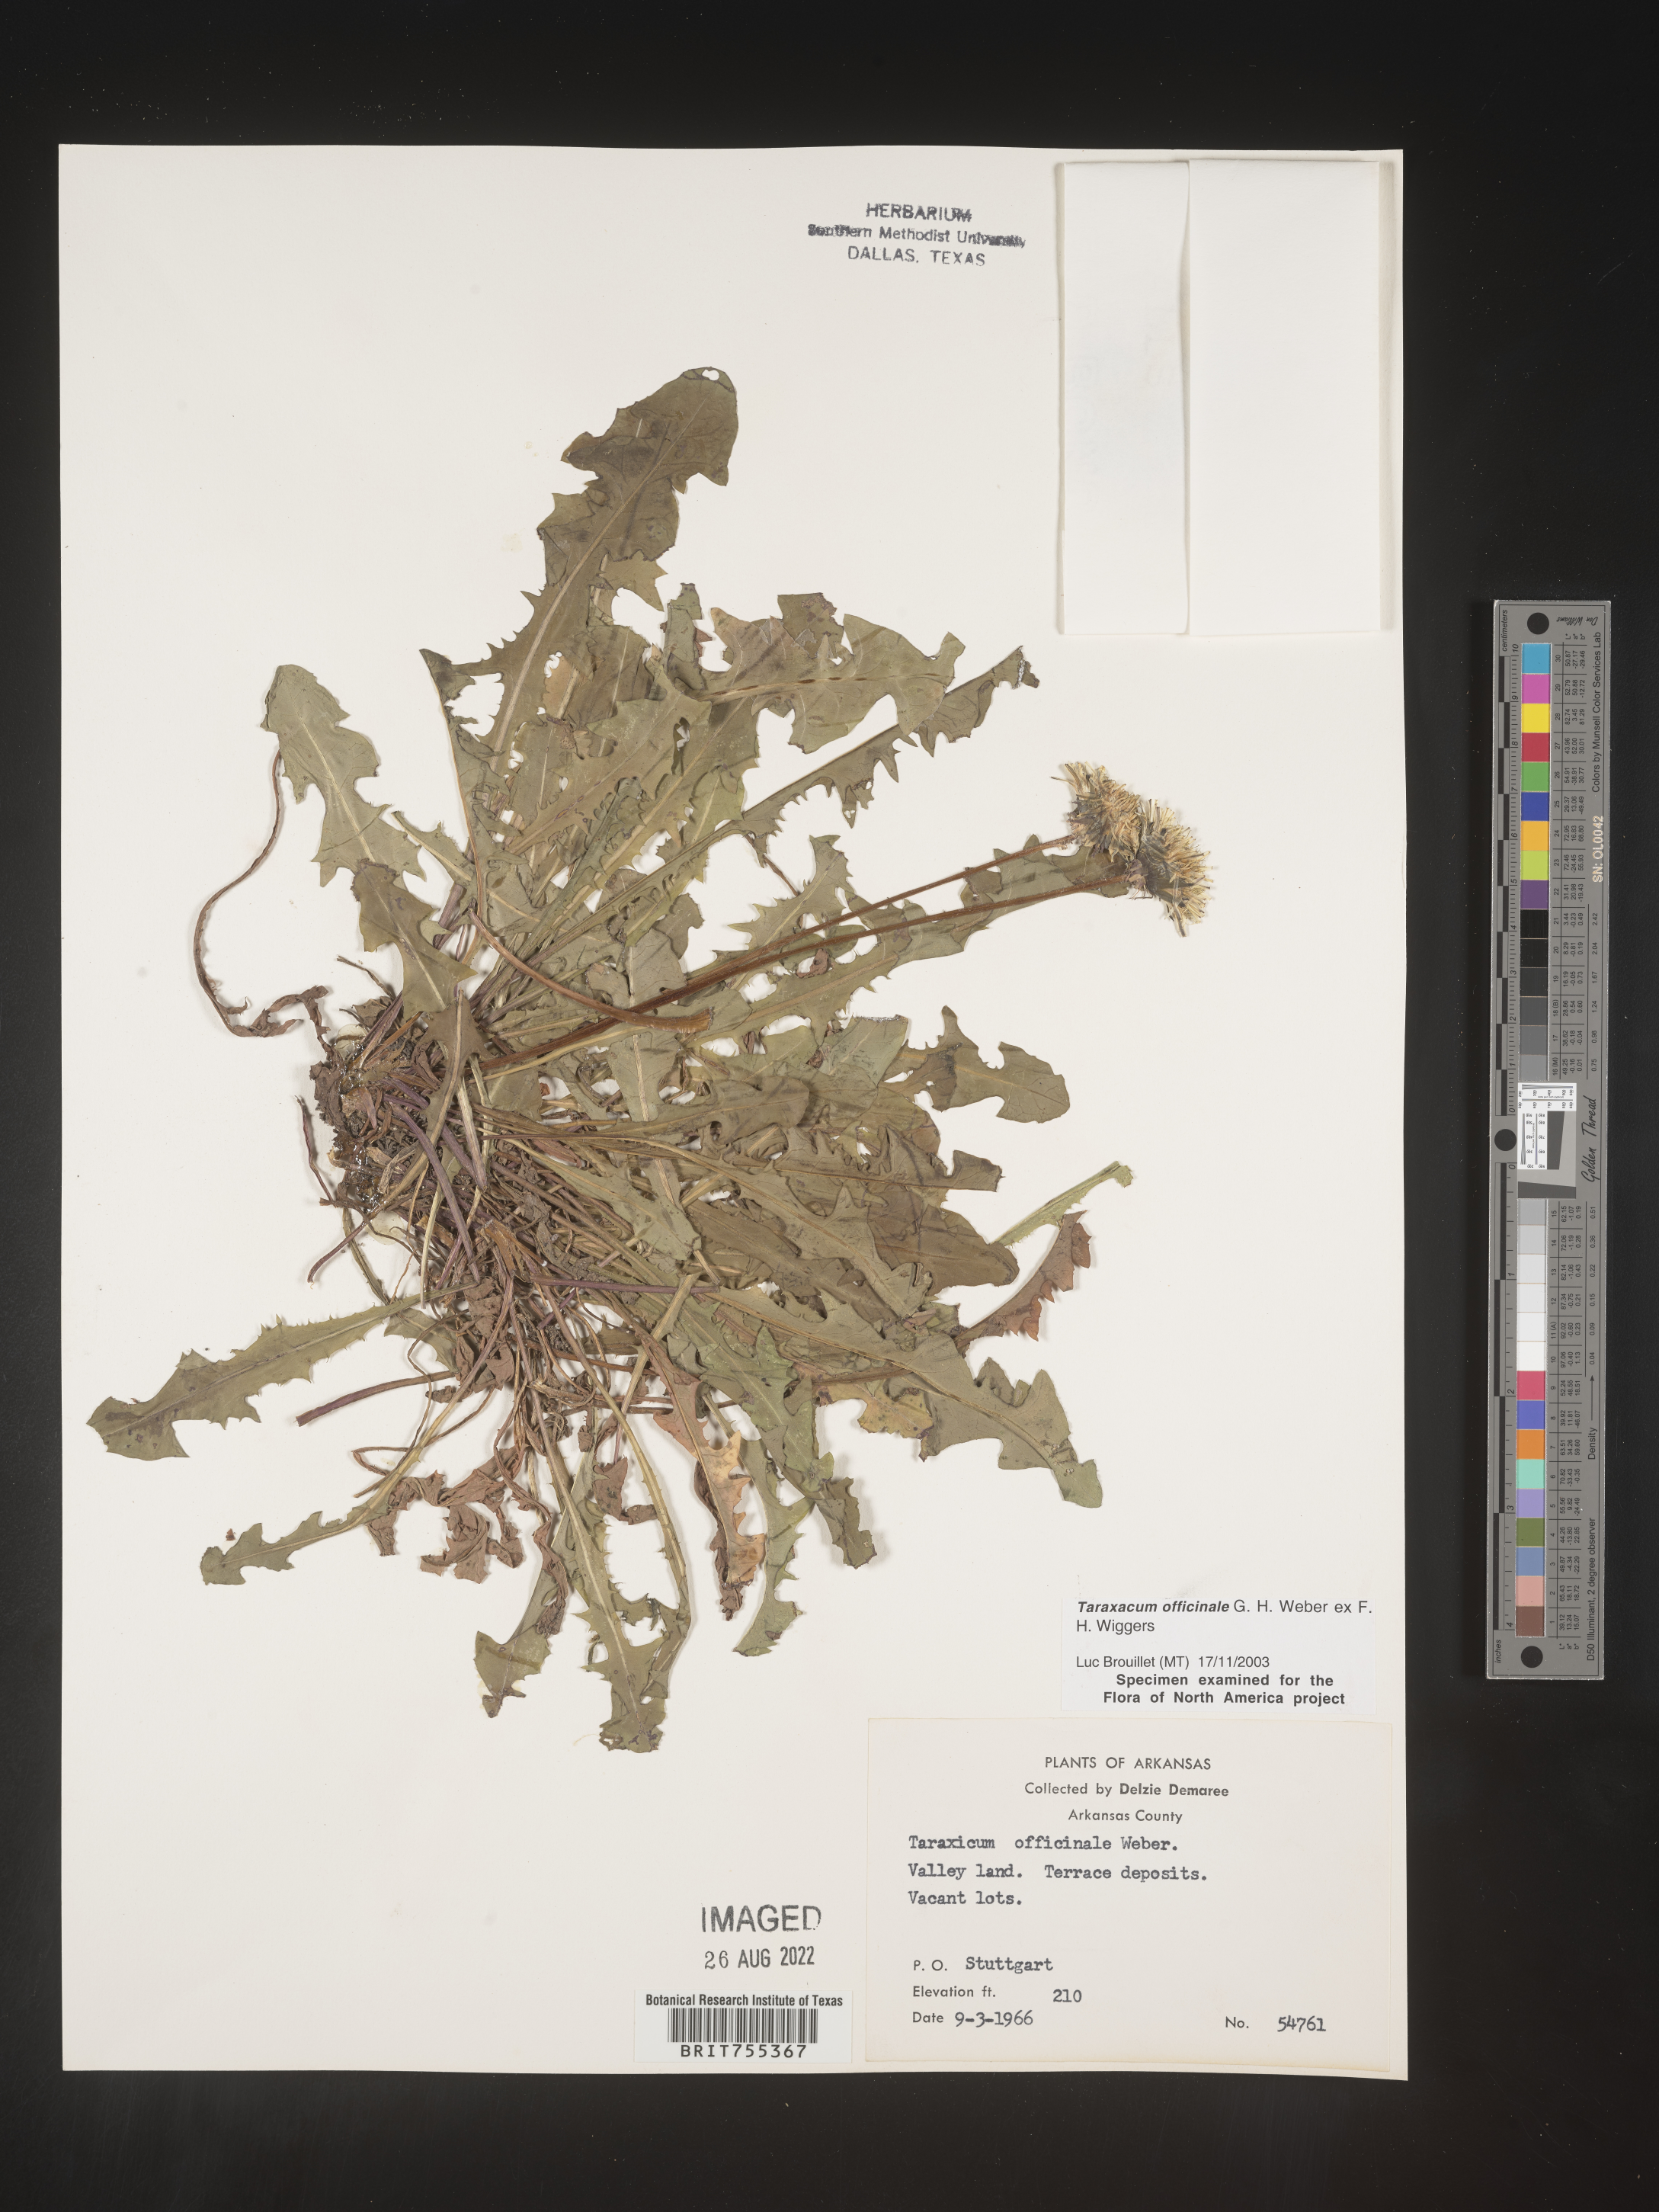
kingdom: Plantae
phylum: Tracheophyta
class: Magnoliopsida
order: Asterales
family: Asteraceae
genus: Taraxacum
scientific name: Taraxacum officinale
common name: Common dandelion
